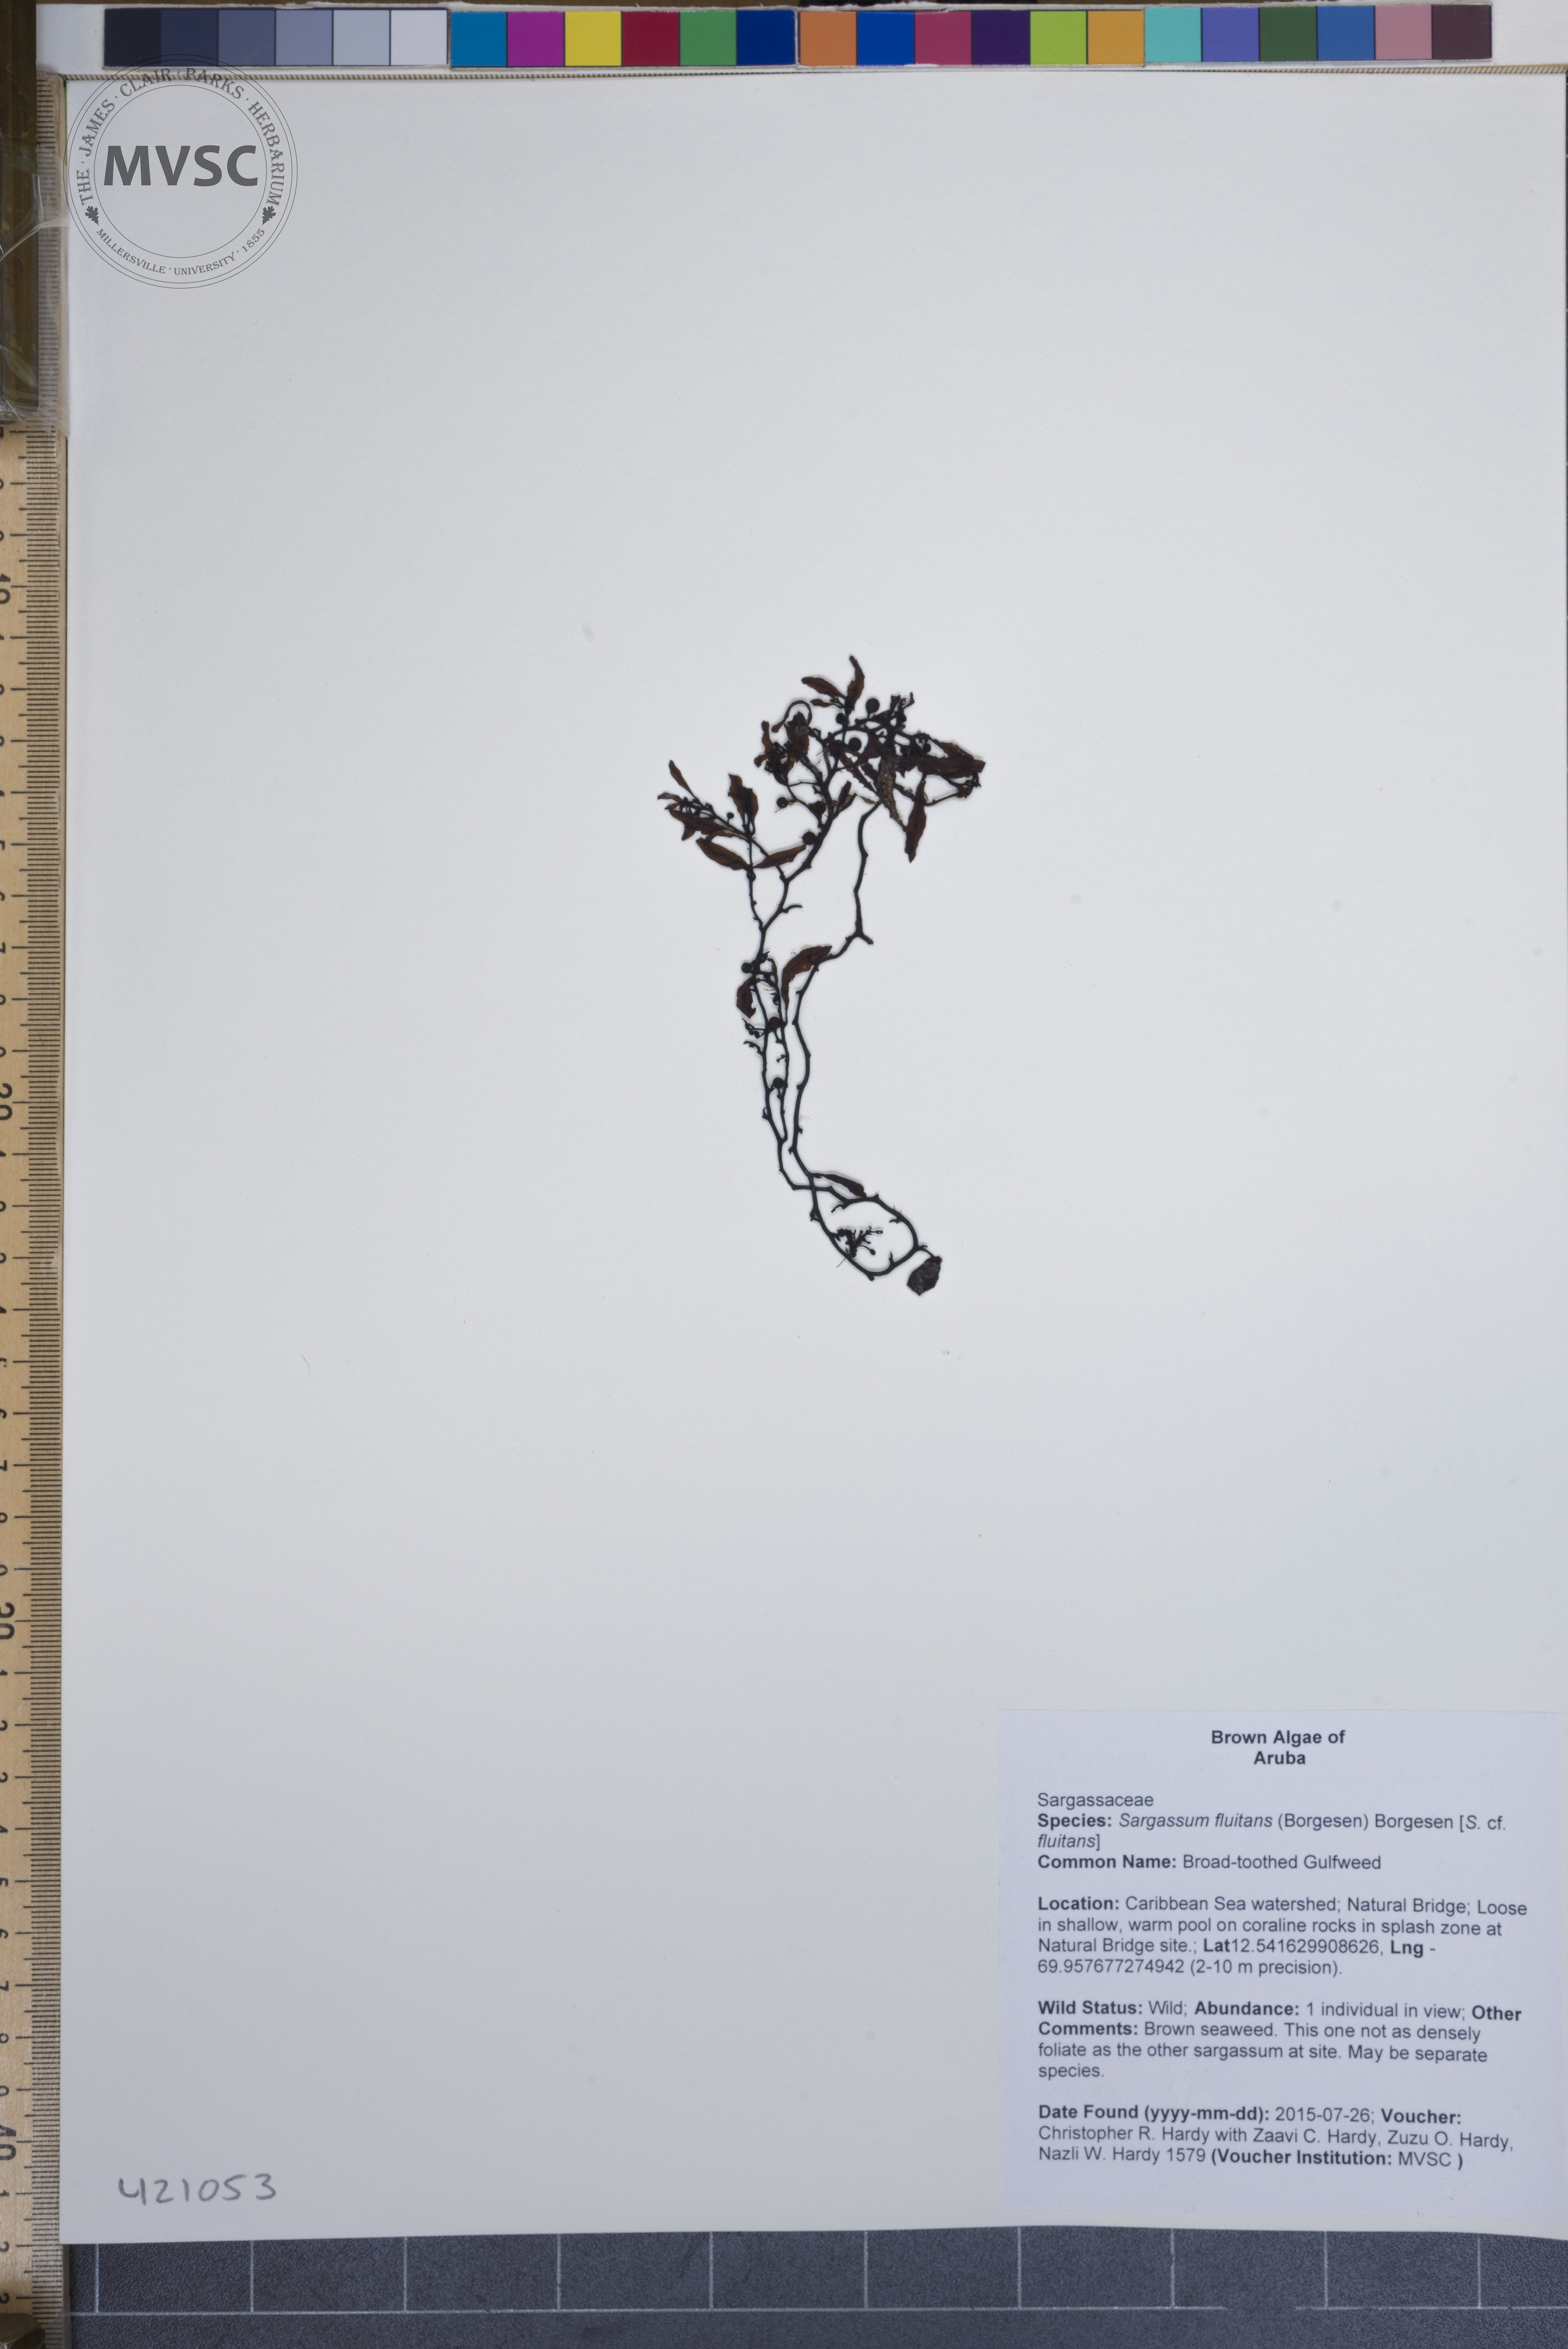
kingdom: Chromista
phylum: Ochrophyta
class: Phaeophyceae
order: Fucales
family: Sargassaceae
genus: Sargassum
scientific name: Sargassum fluitans
